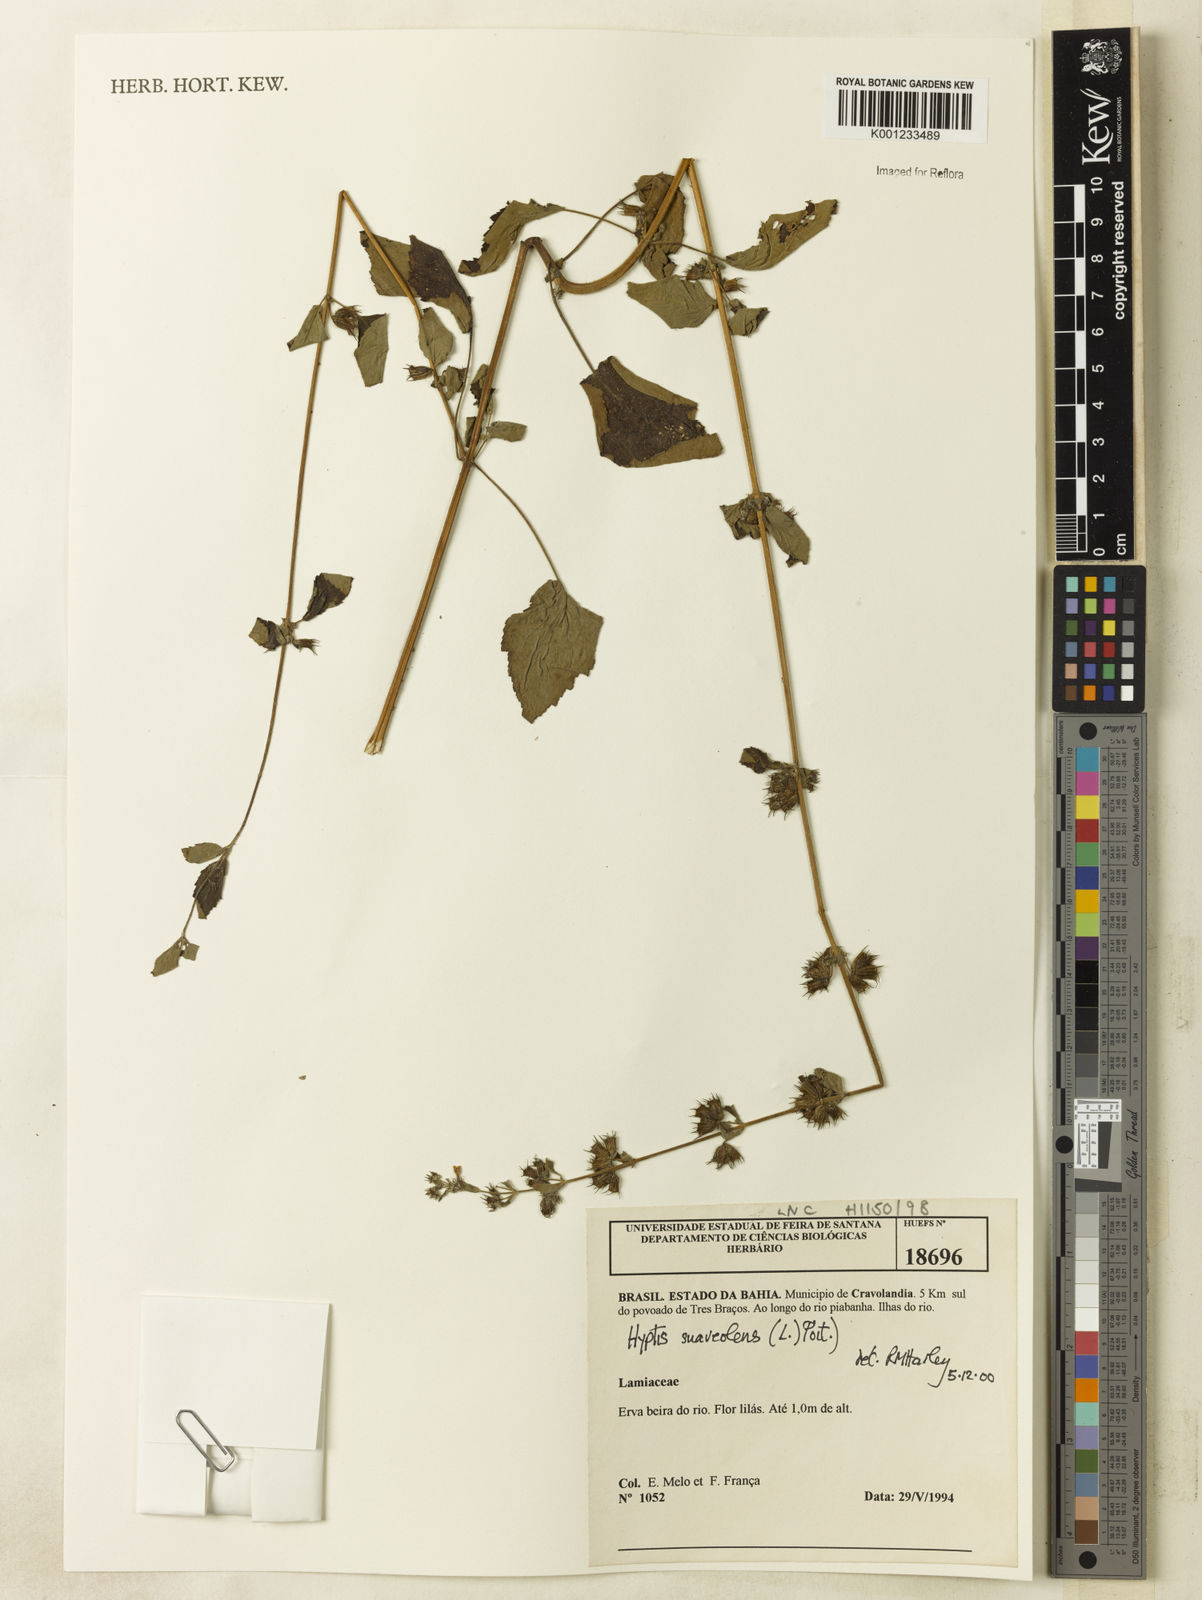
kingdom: Plantae
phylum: Tracheophyta
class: Magnoliopsida
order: Lamiales
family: Lamiaceae
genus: Mesosphaerum
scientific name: Mesosphaerum suaveolens
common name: Pignut
